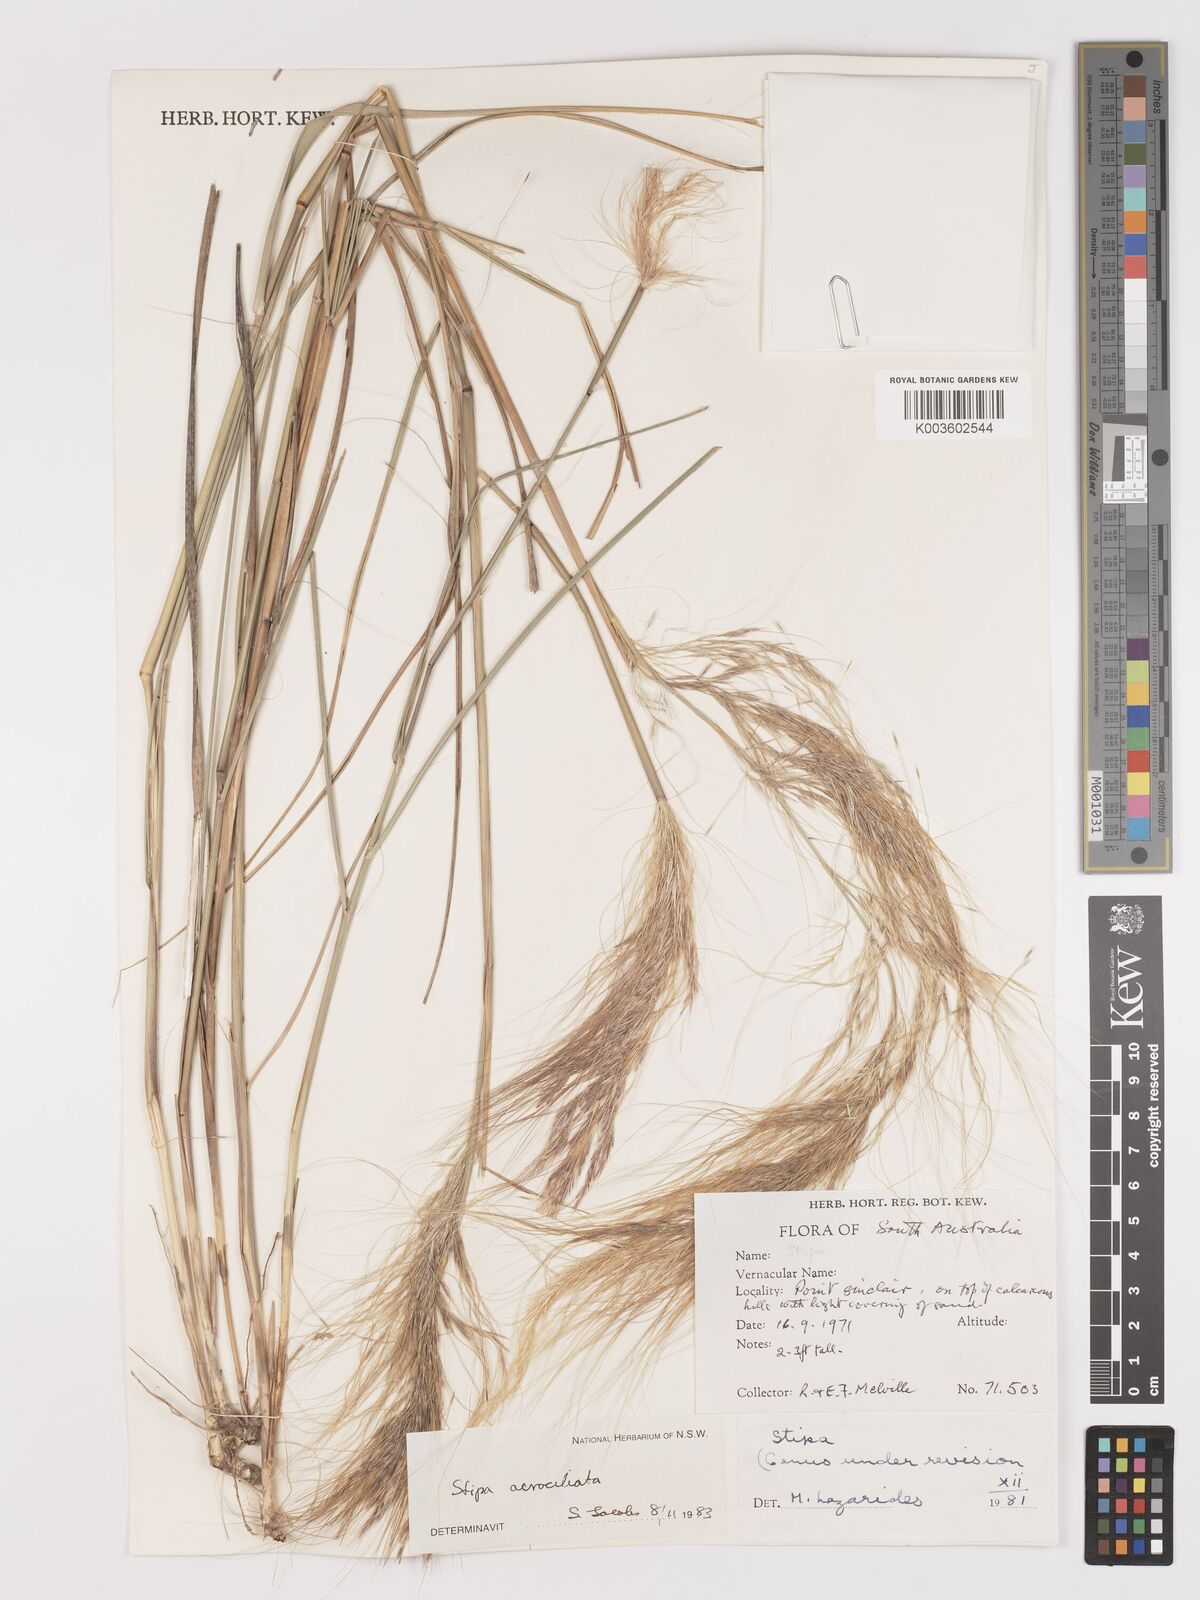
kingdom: Plantae
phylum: Tracheophyta
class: Liliopsida
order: Poales
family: Poaceae
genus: Austrostipa
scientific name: Austrostipa acrociliata
